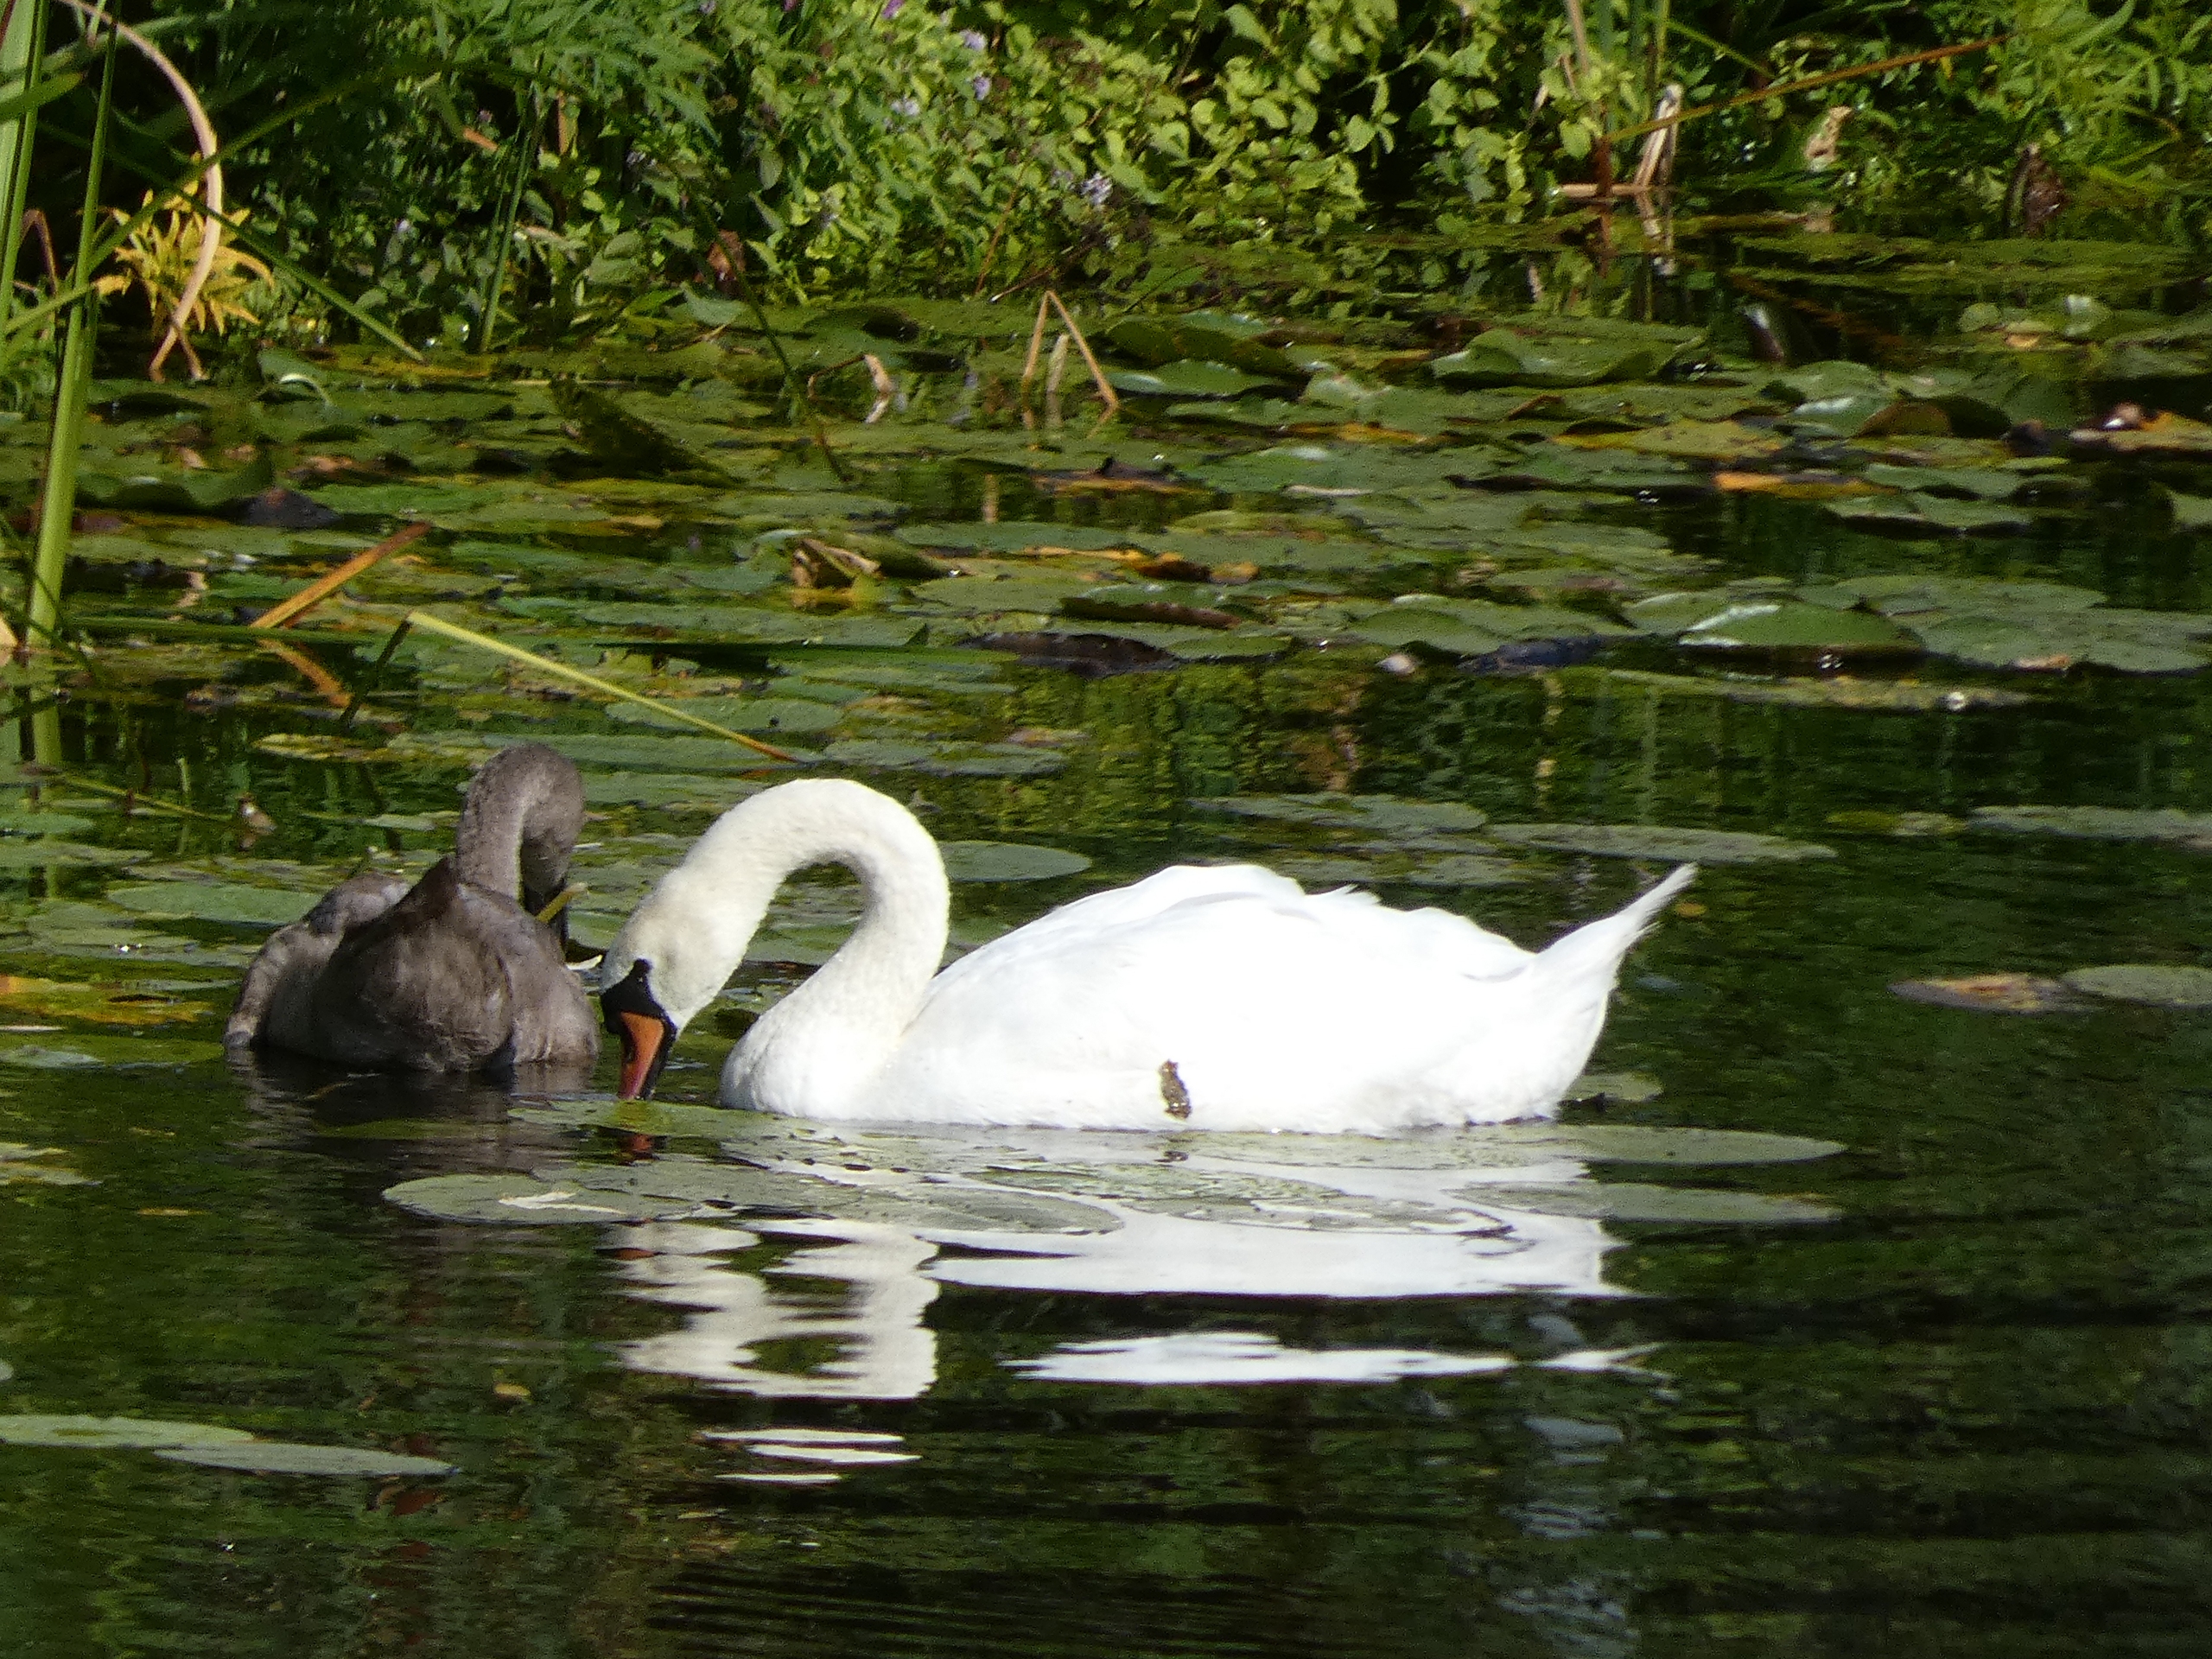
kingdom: Animalia
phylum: Chordata
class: Aves
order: Anseriformes
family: Anatidae
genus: Cygnus
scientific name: Cygnus olor
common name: Knopsvane
